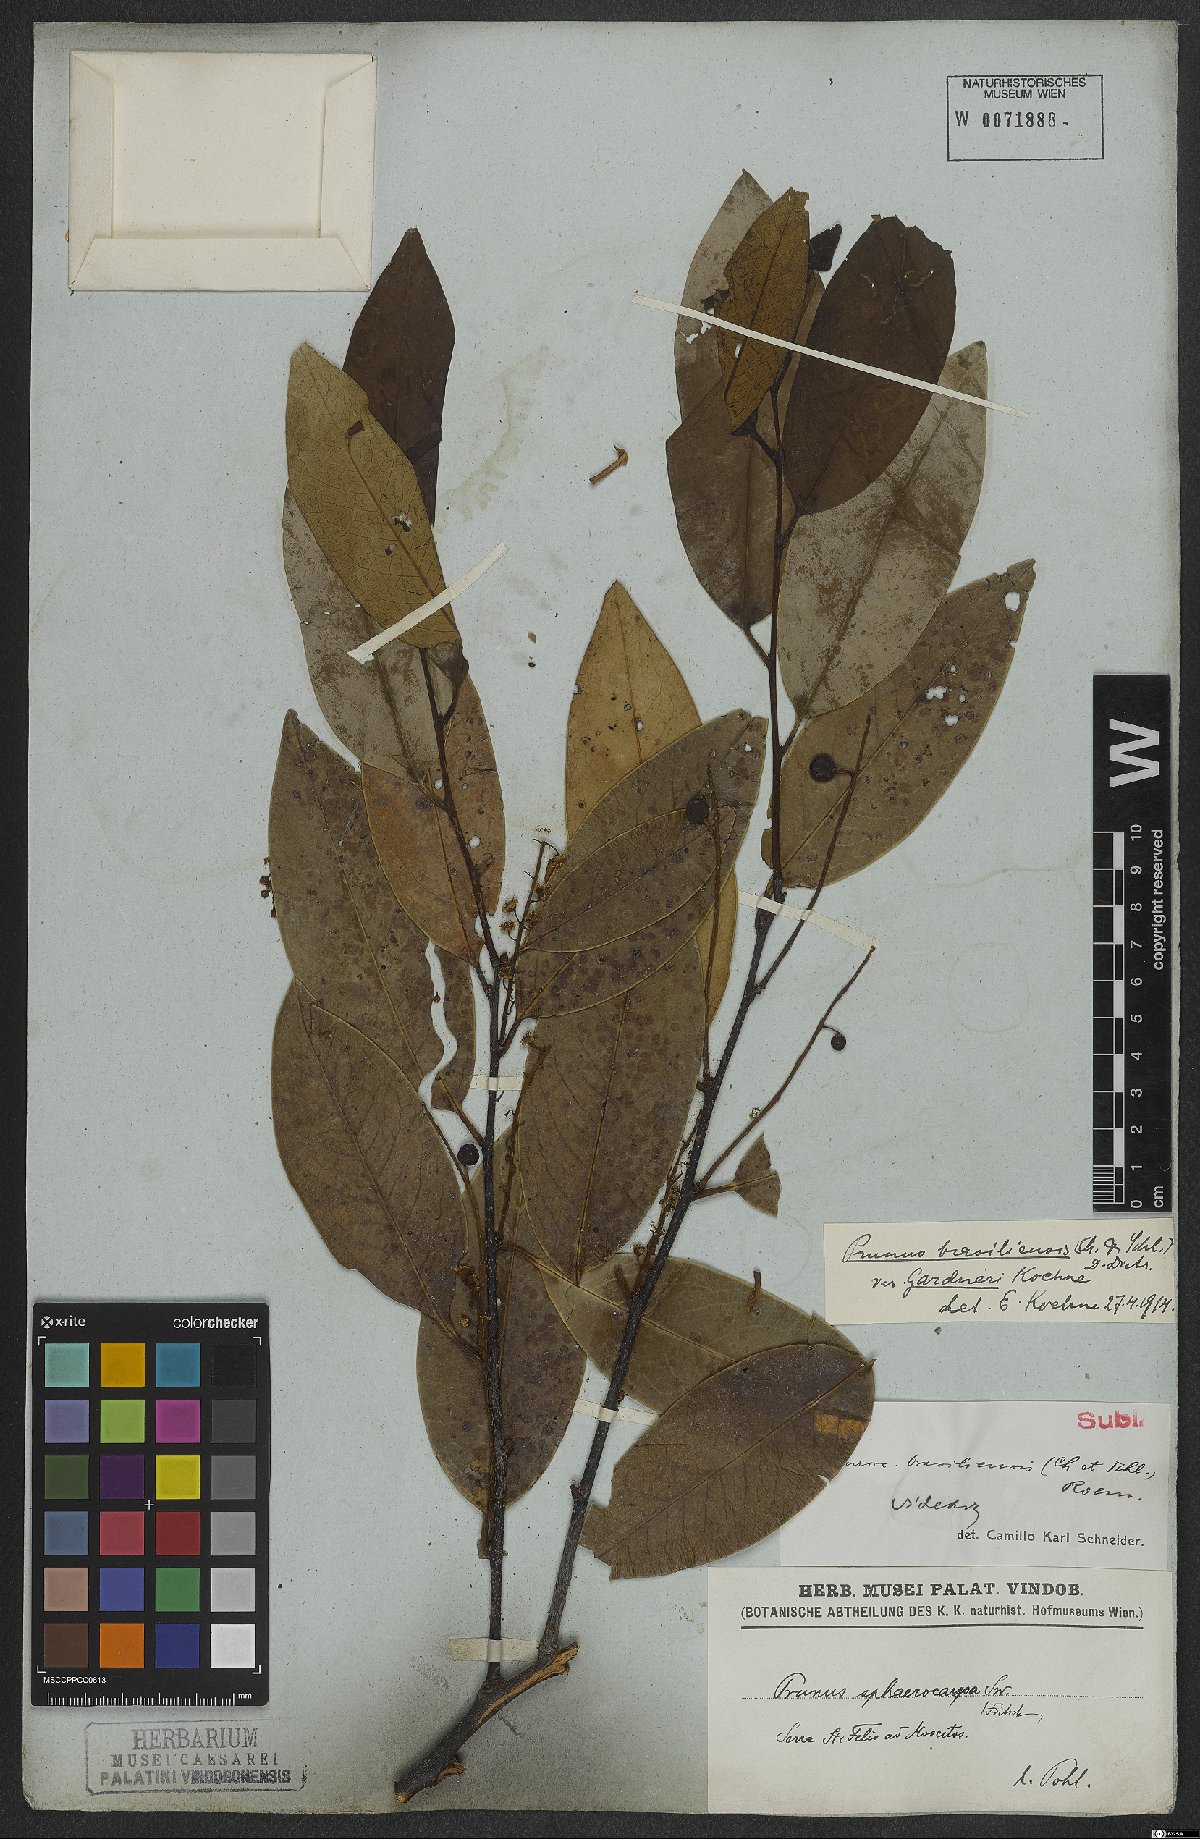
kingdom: Plantae
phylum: Tracheophyta
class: Magnoliopsida
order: Rosales
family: Rosaceae
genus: Prunus
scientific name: Prunus brasiliensis
